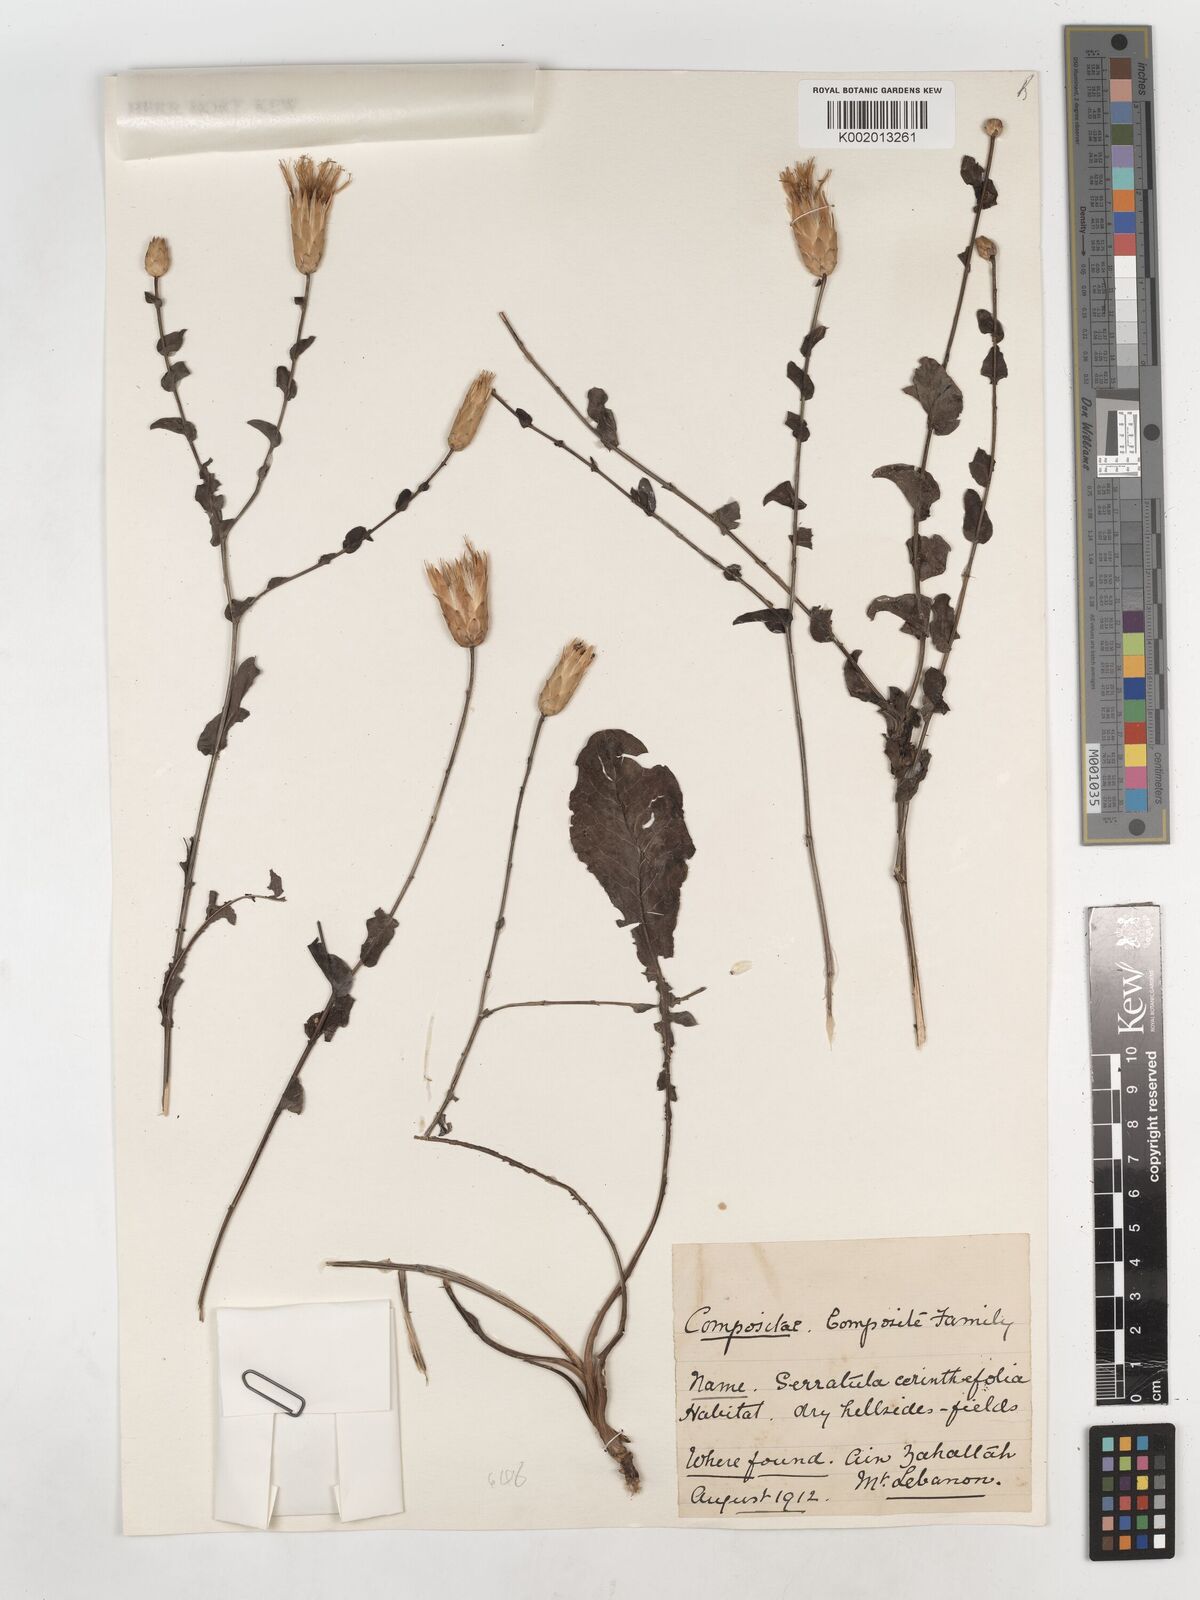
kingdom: Plantae
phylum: Tracheophyta
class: Magnoliopsida
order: Asterales
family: Asteraceae
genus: Klasea
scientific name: Klasea cerinthifolia
